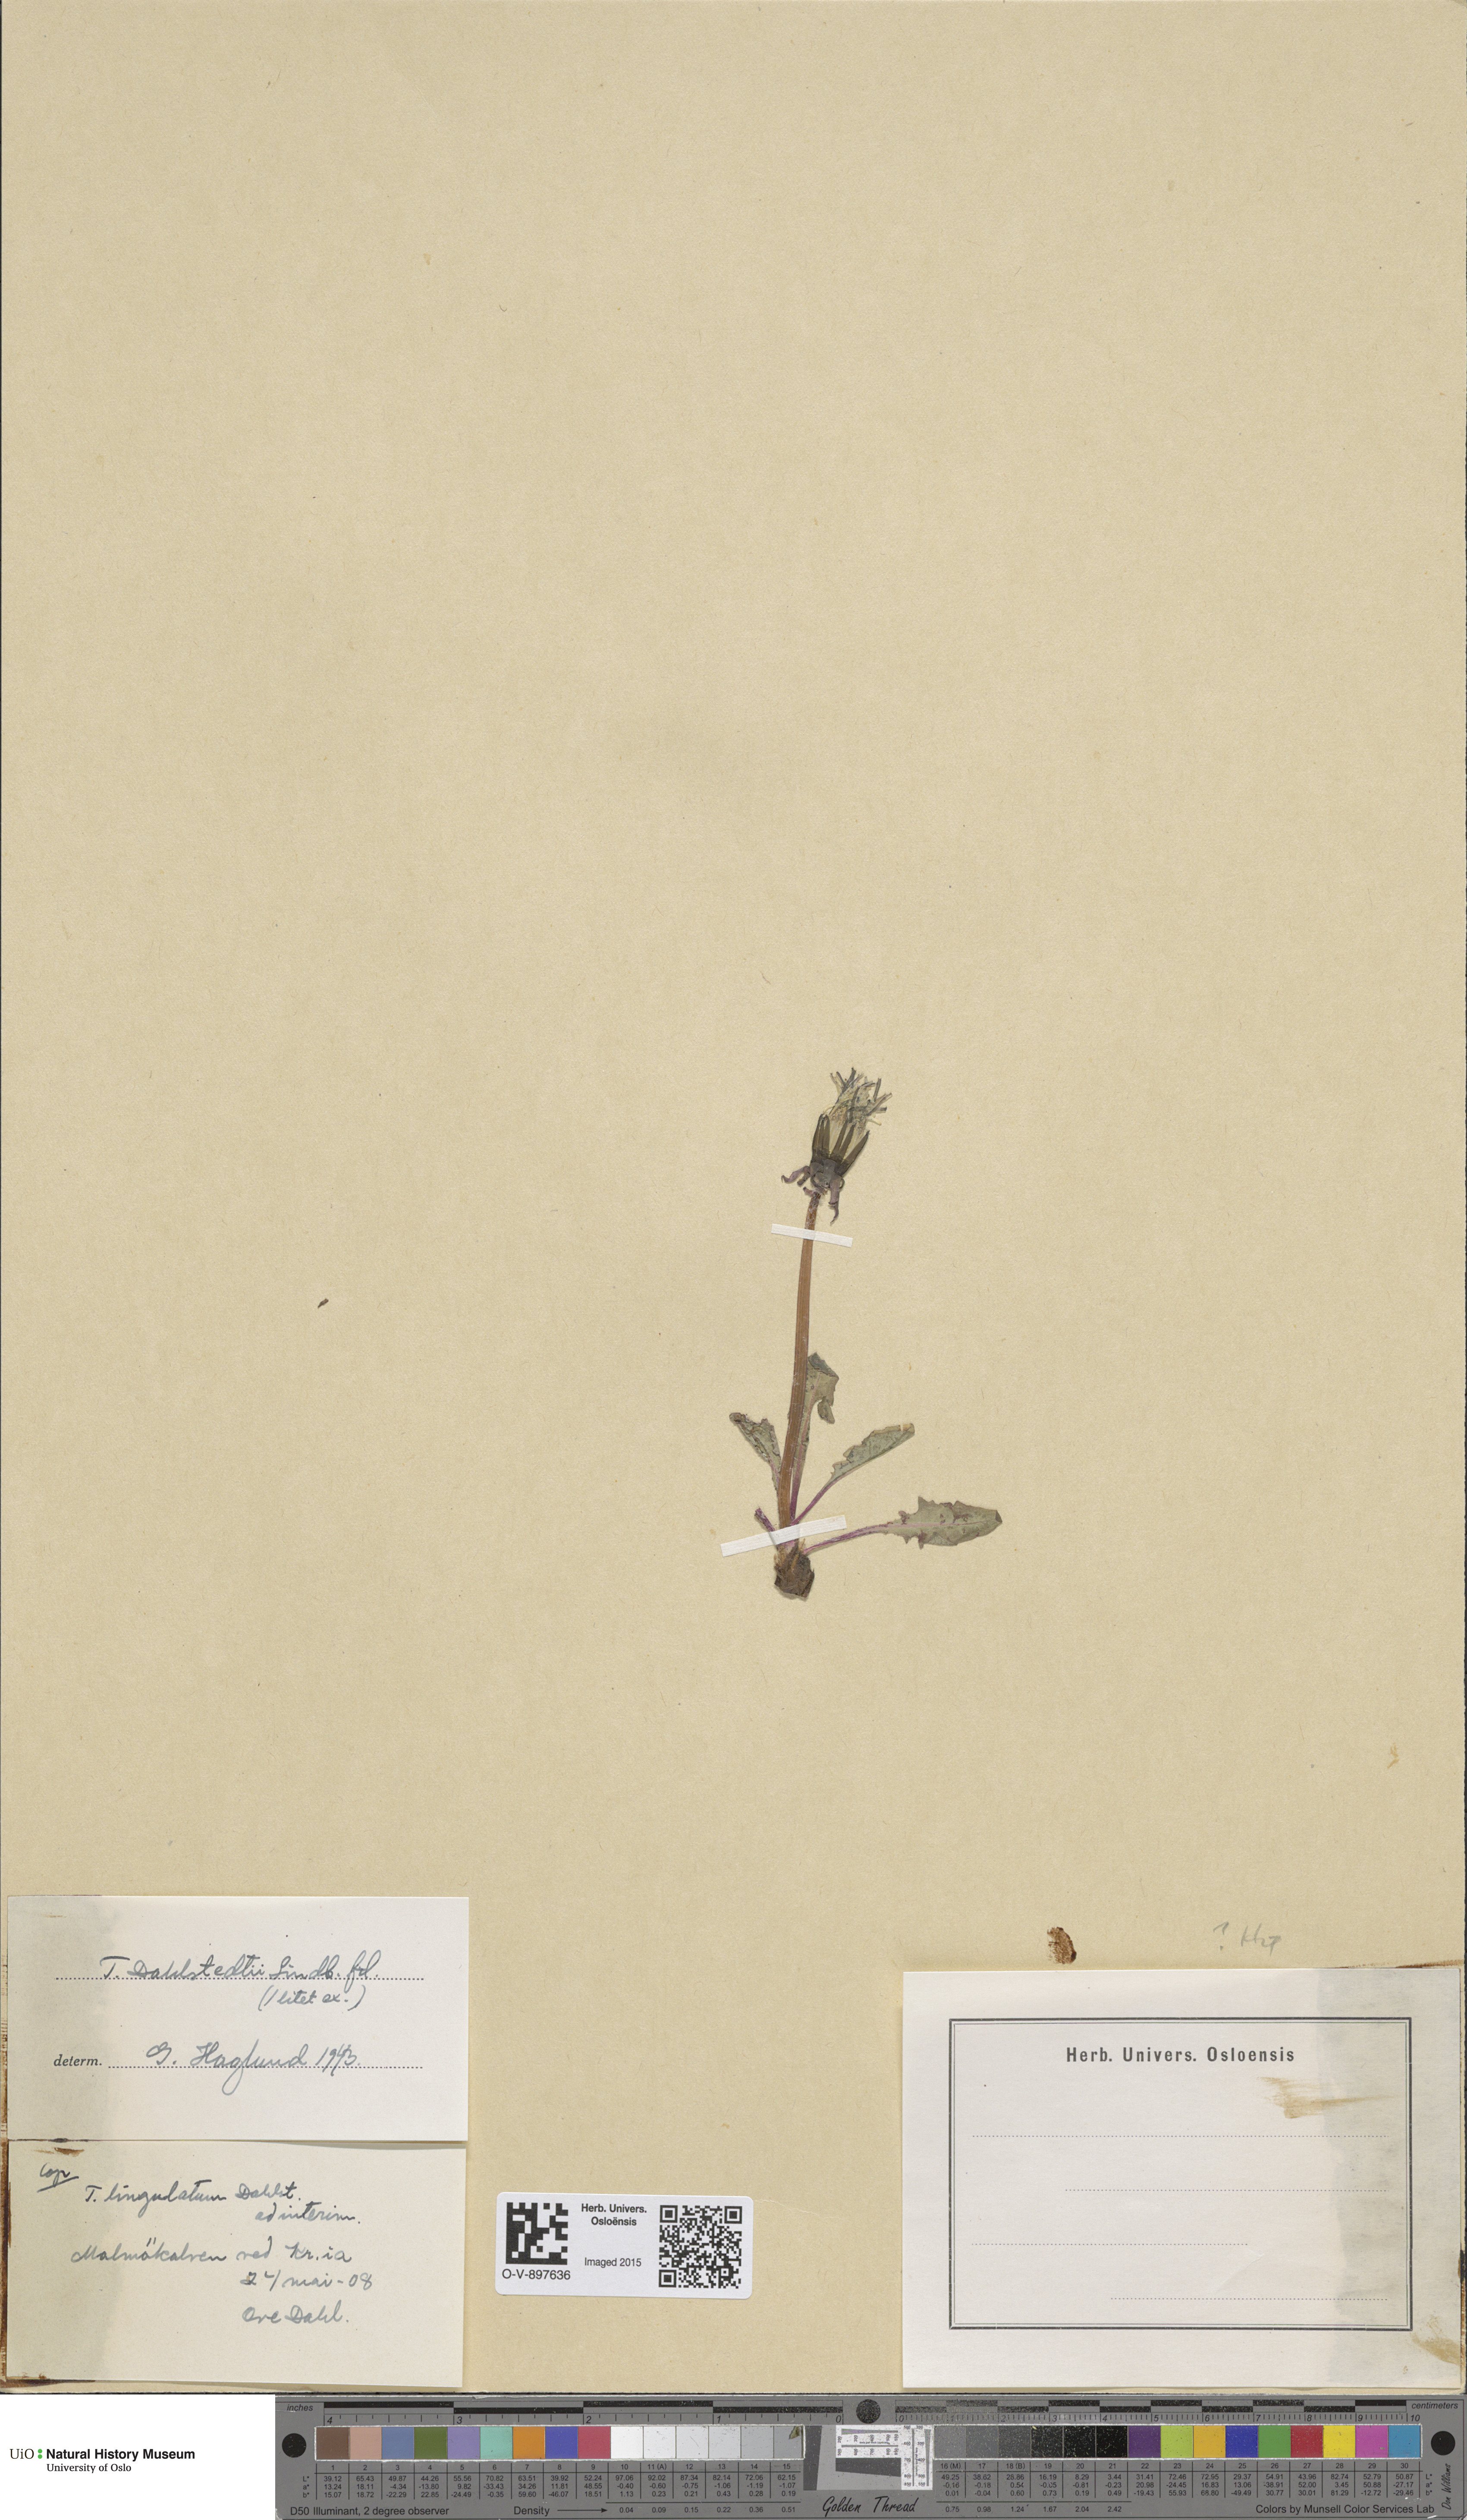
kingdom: Plantae
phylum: Tracheophyta
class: Magnoliopsida
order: Asterales
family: Asteraceae
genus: Taraxacum
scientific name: Taraxacum stenoglossum
